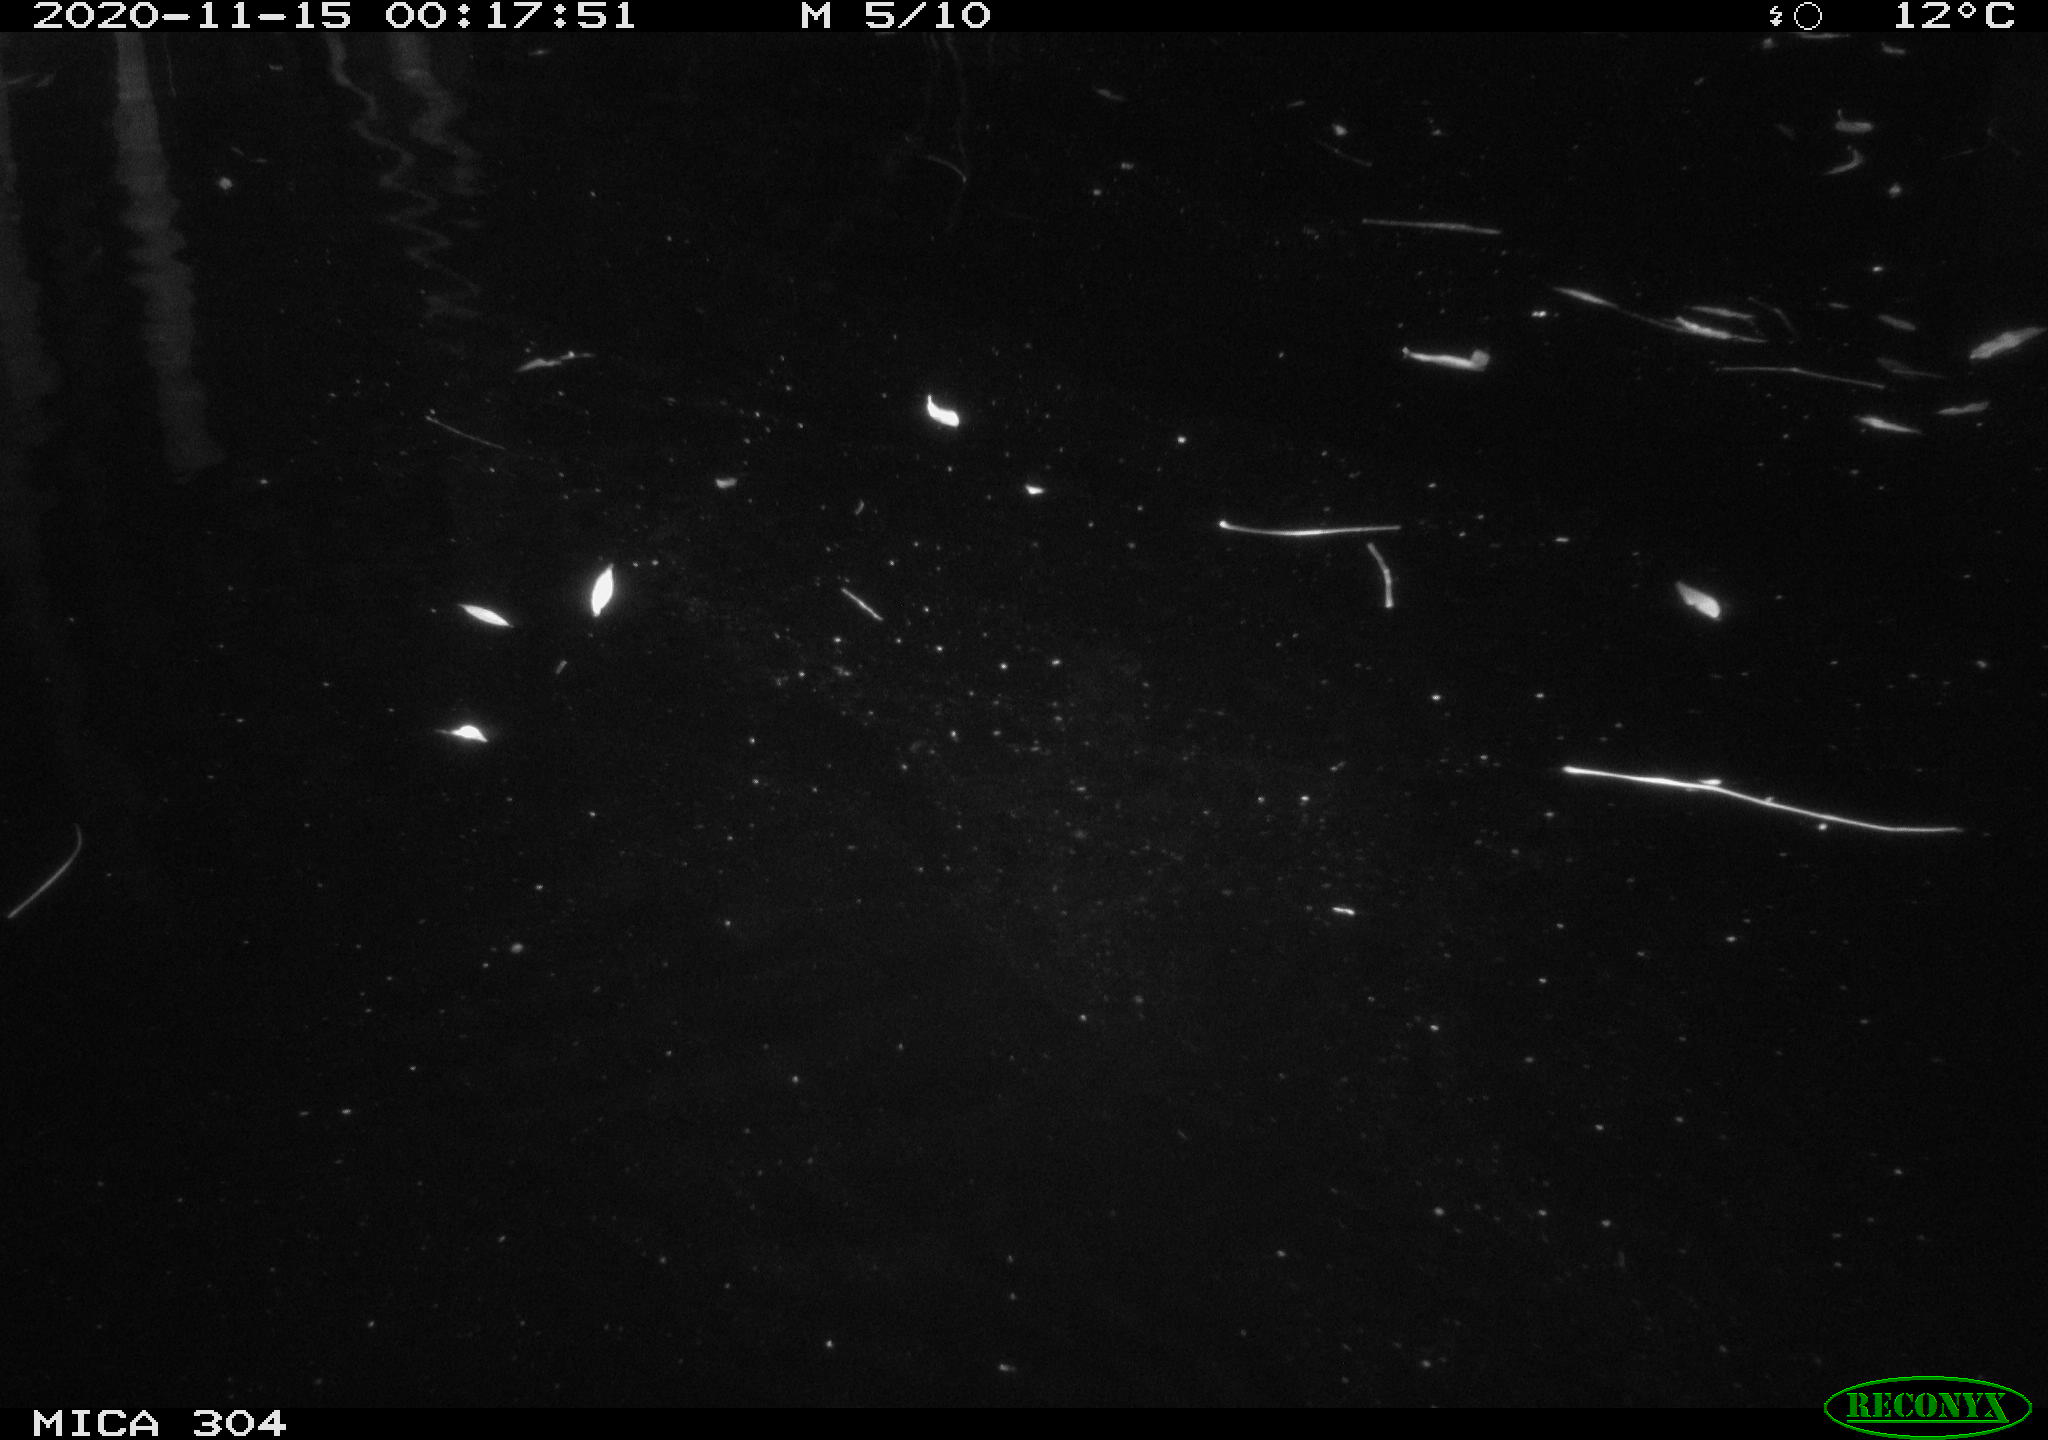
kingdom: Animalia
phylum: Chordata
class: Mammalia
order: Rodentia
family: Muridae
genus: Rattus
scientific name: Rattus norvegicus
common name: Brown rat
